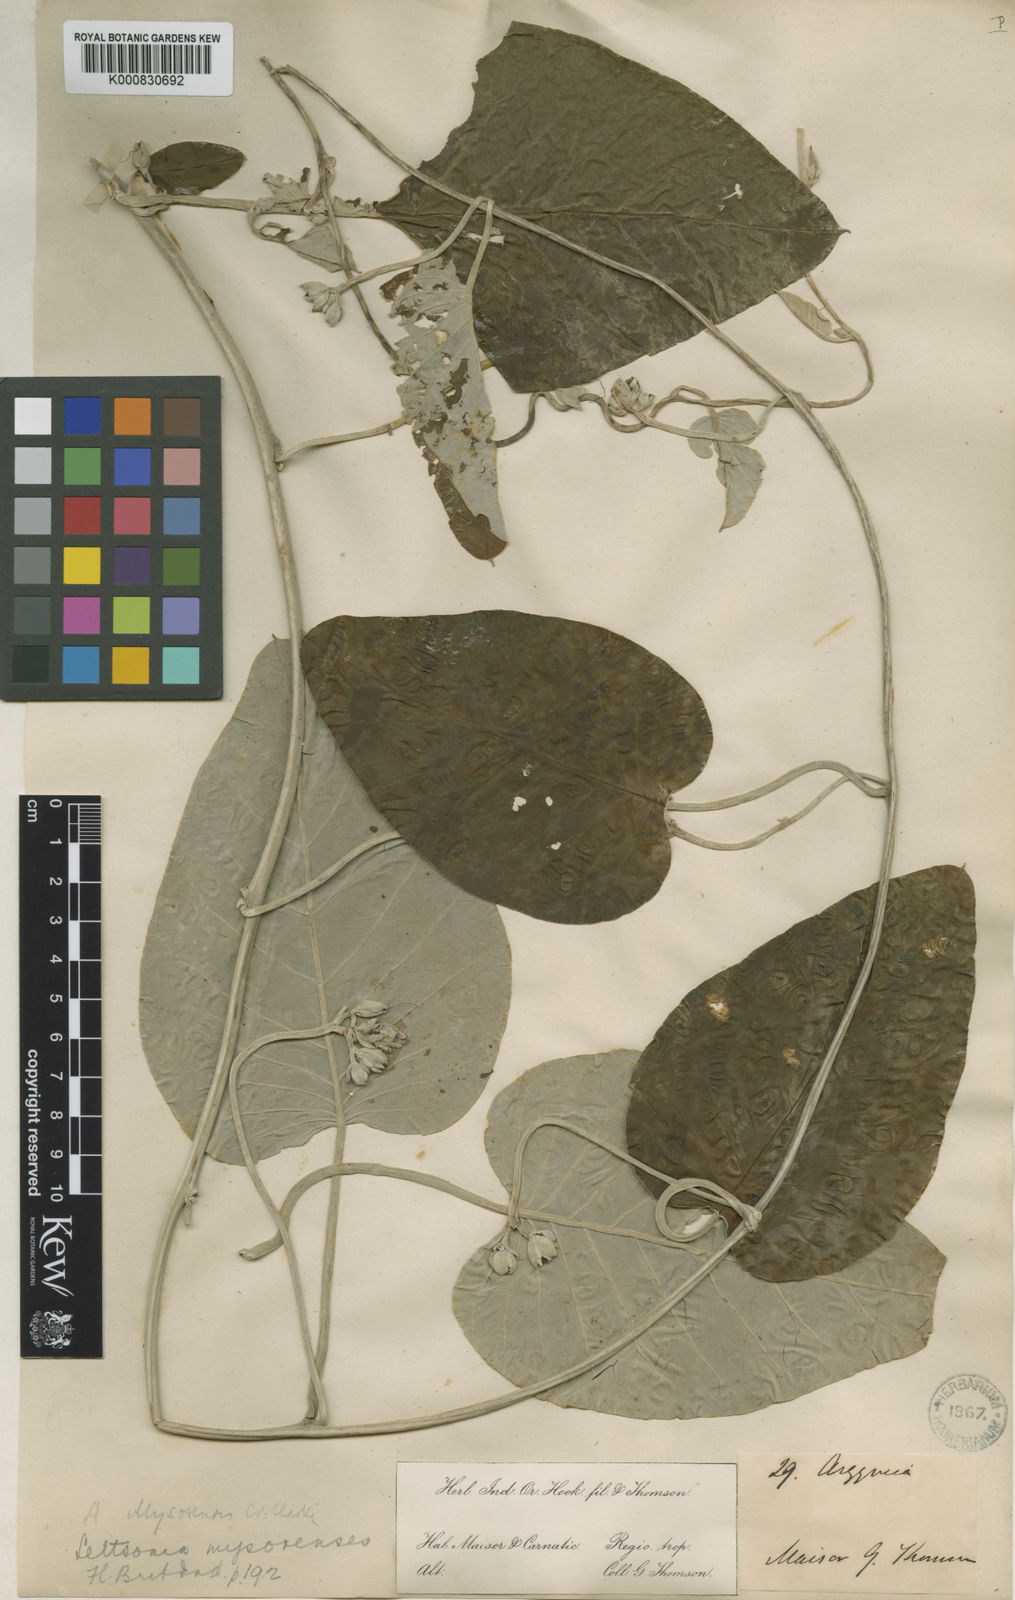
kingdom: Plantae
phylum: Tracheophyta
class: Magnoliopsida
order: Solanales
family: Convolvulaceae
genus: Argyreia
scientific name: Argyreia
